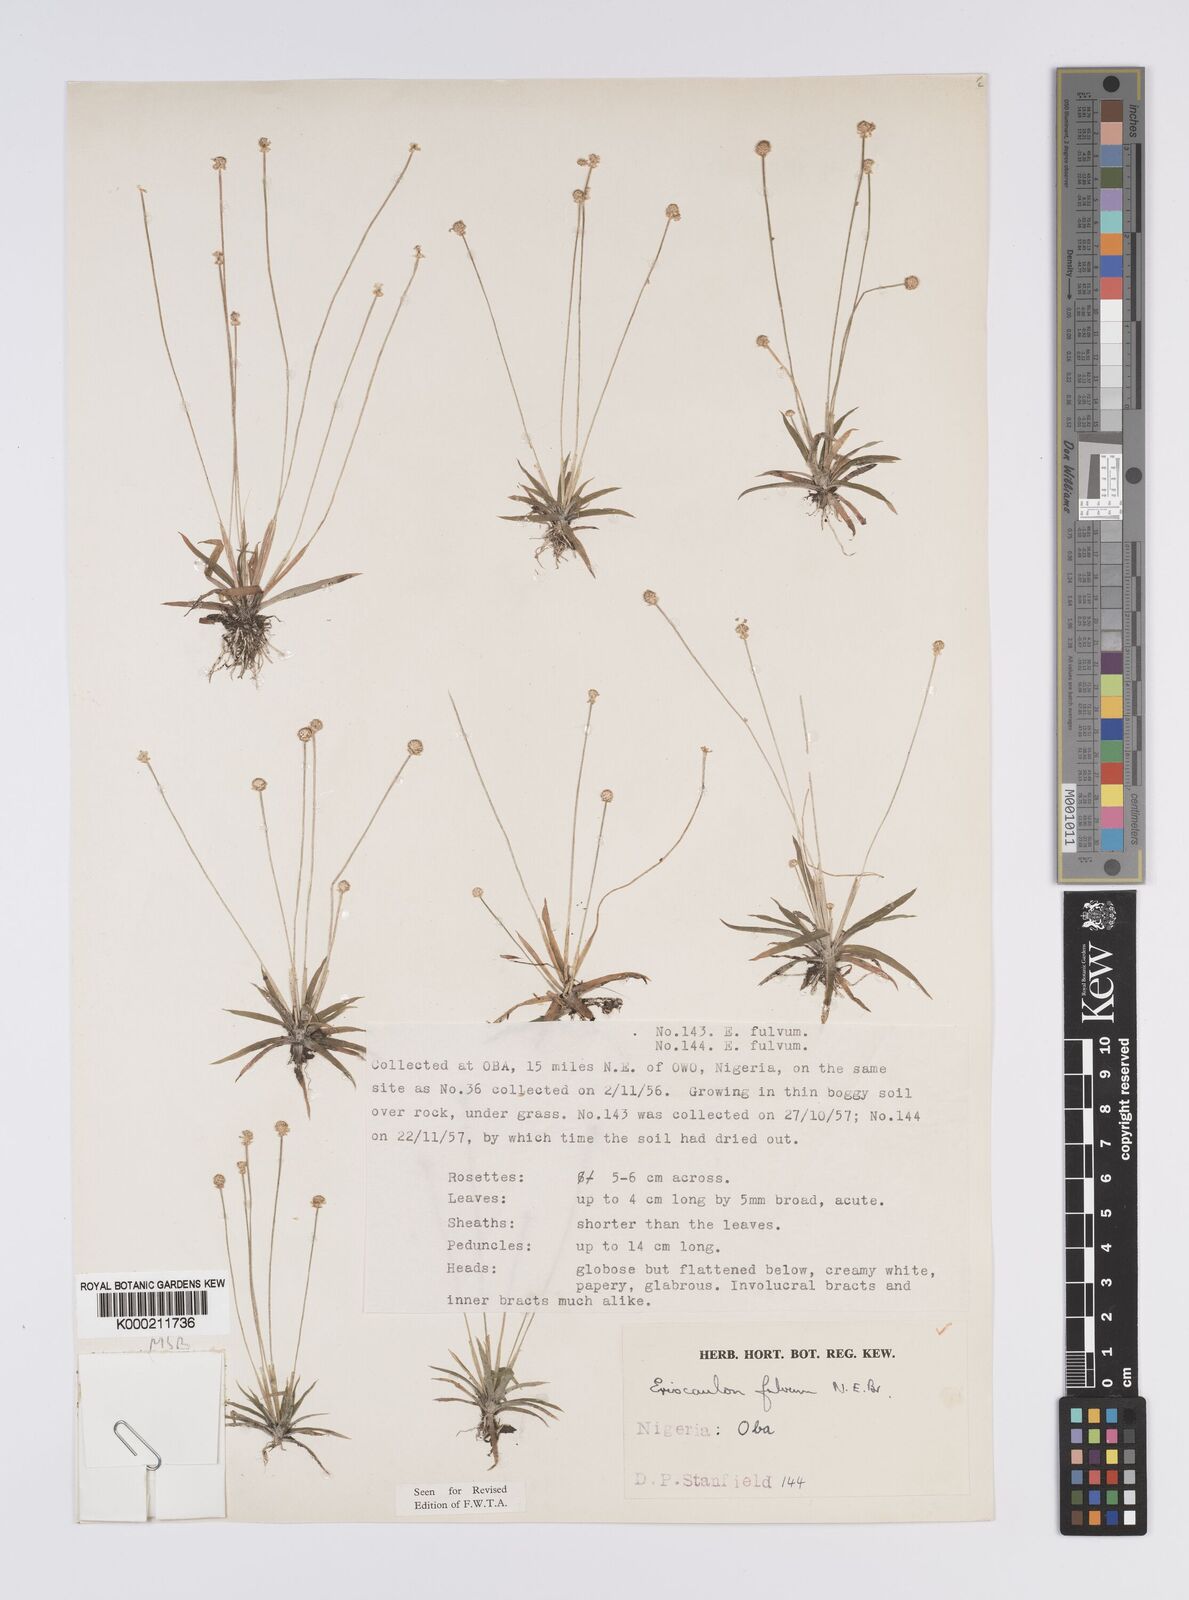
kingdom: Plantae
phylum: Tracheophyta
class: Liliopsida
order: Poales
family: Eriocaulaceae
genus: Eriocaulon
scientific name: Eriocaulon fulvum
